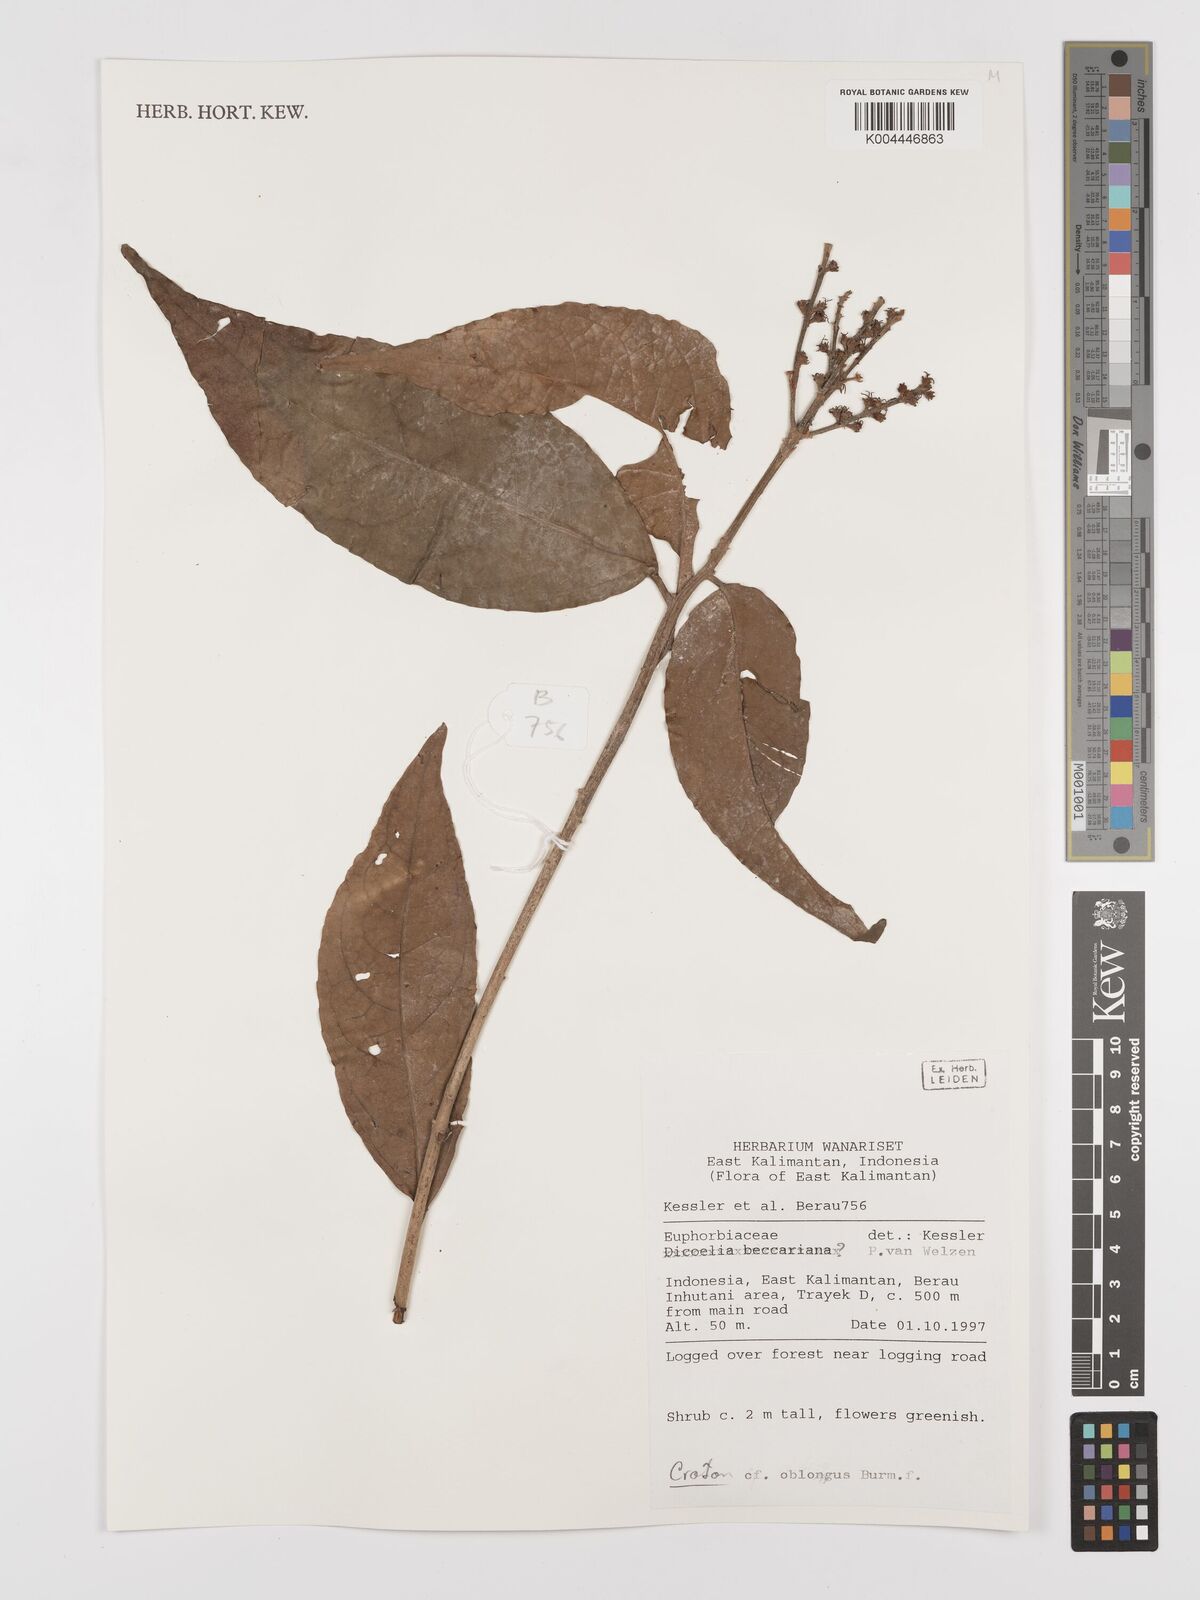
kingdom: Plantae
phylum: Tracheophyta
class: Magnoliopsida
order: Malpighiales
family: Euphorbiaceae
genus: Croton
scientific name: Croton oblongus
